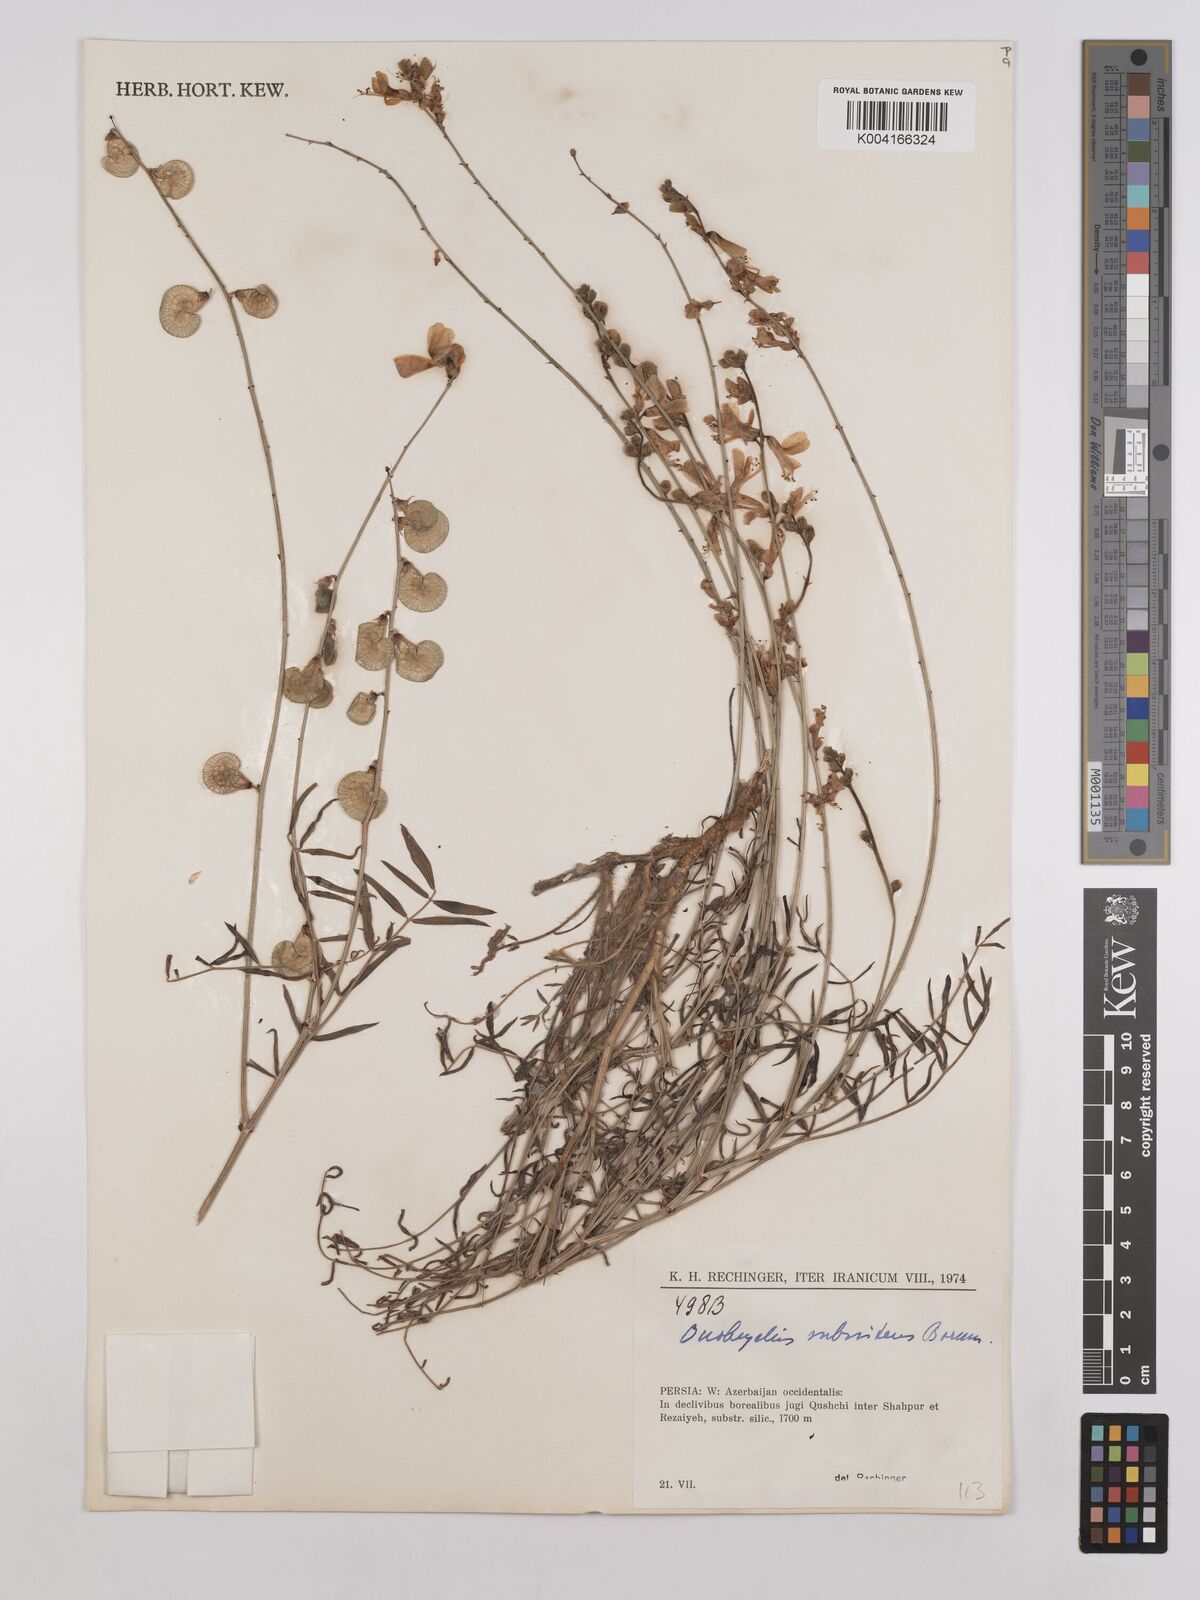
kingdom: Plantae
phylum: Tracheophyta
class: Magnoliopsida
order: Fabales
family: Fabaceae
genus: Onobrychis
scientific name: Onobrychis subnitens
